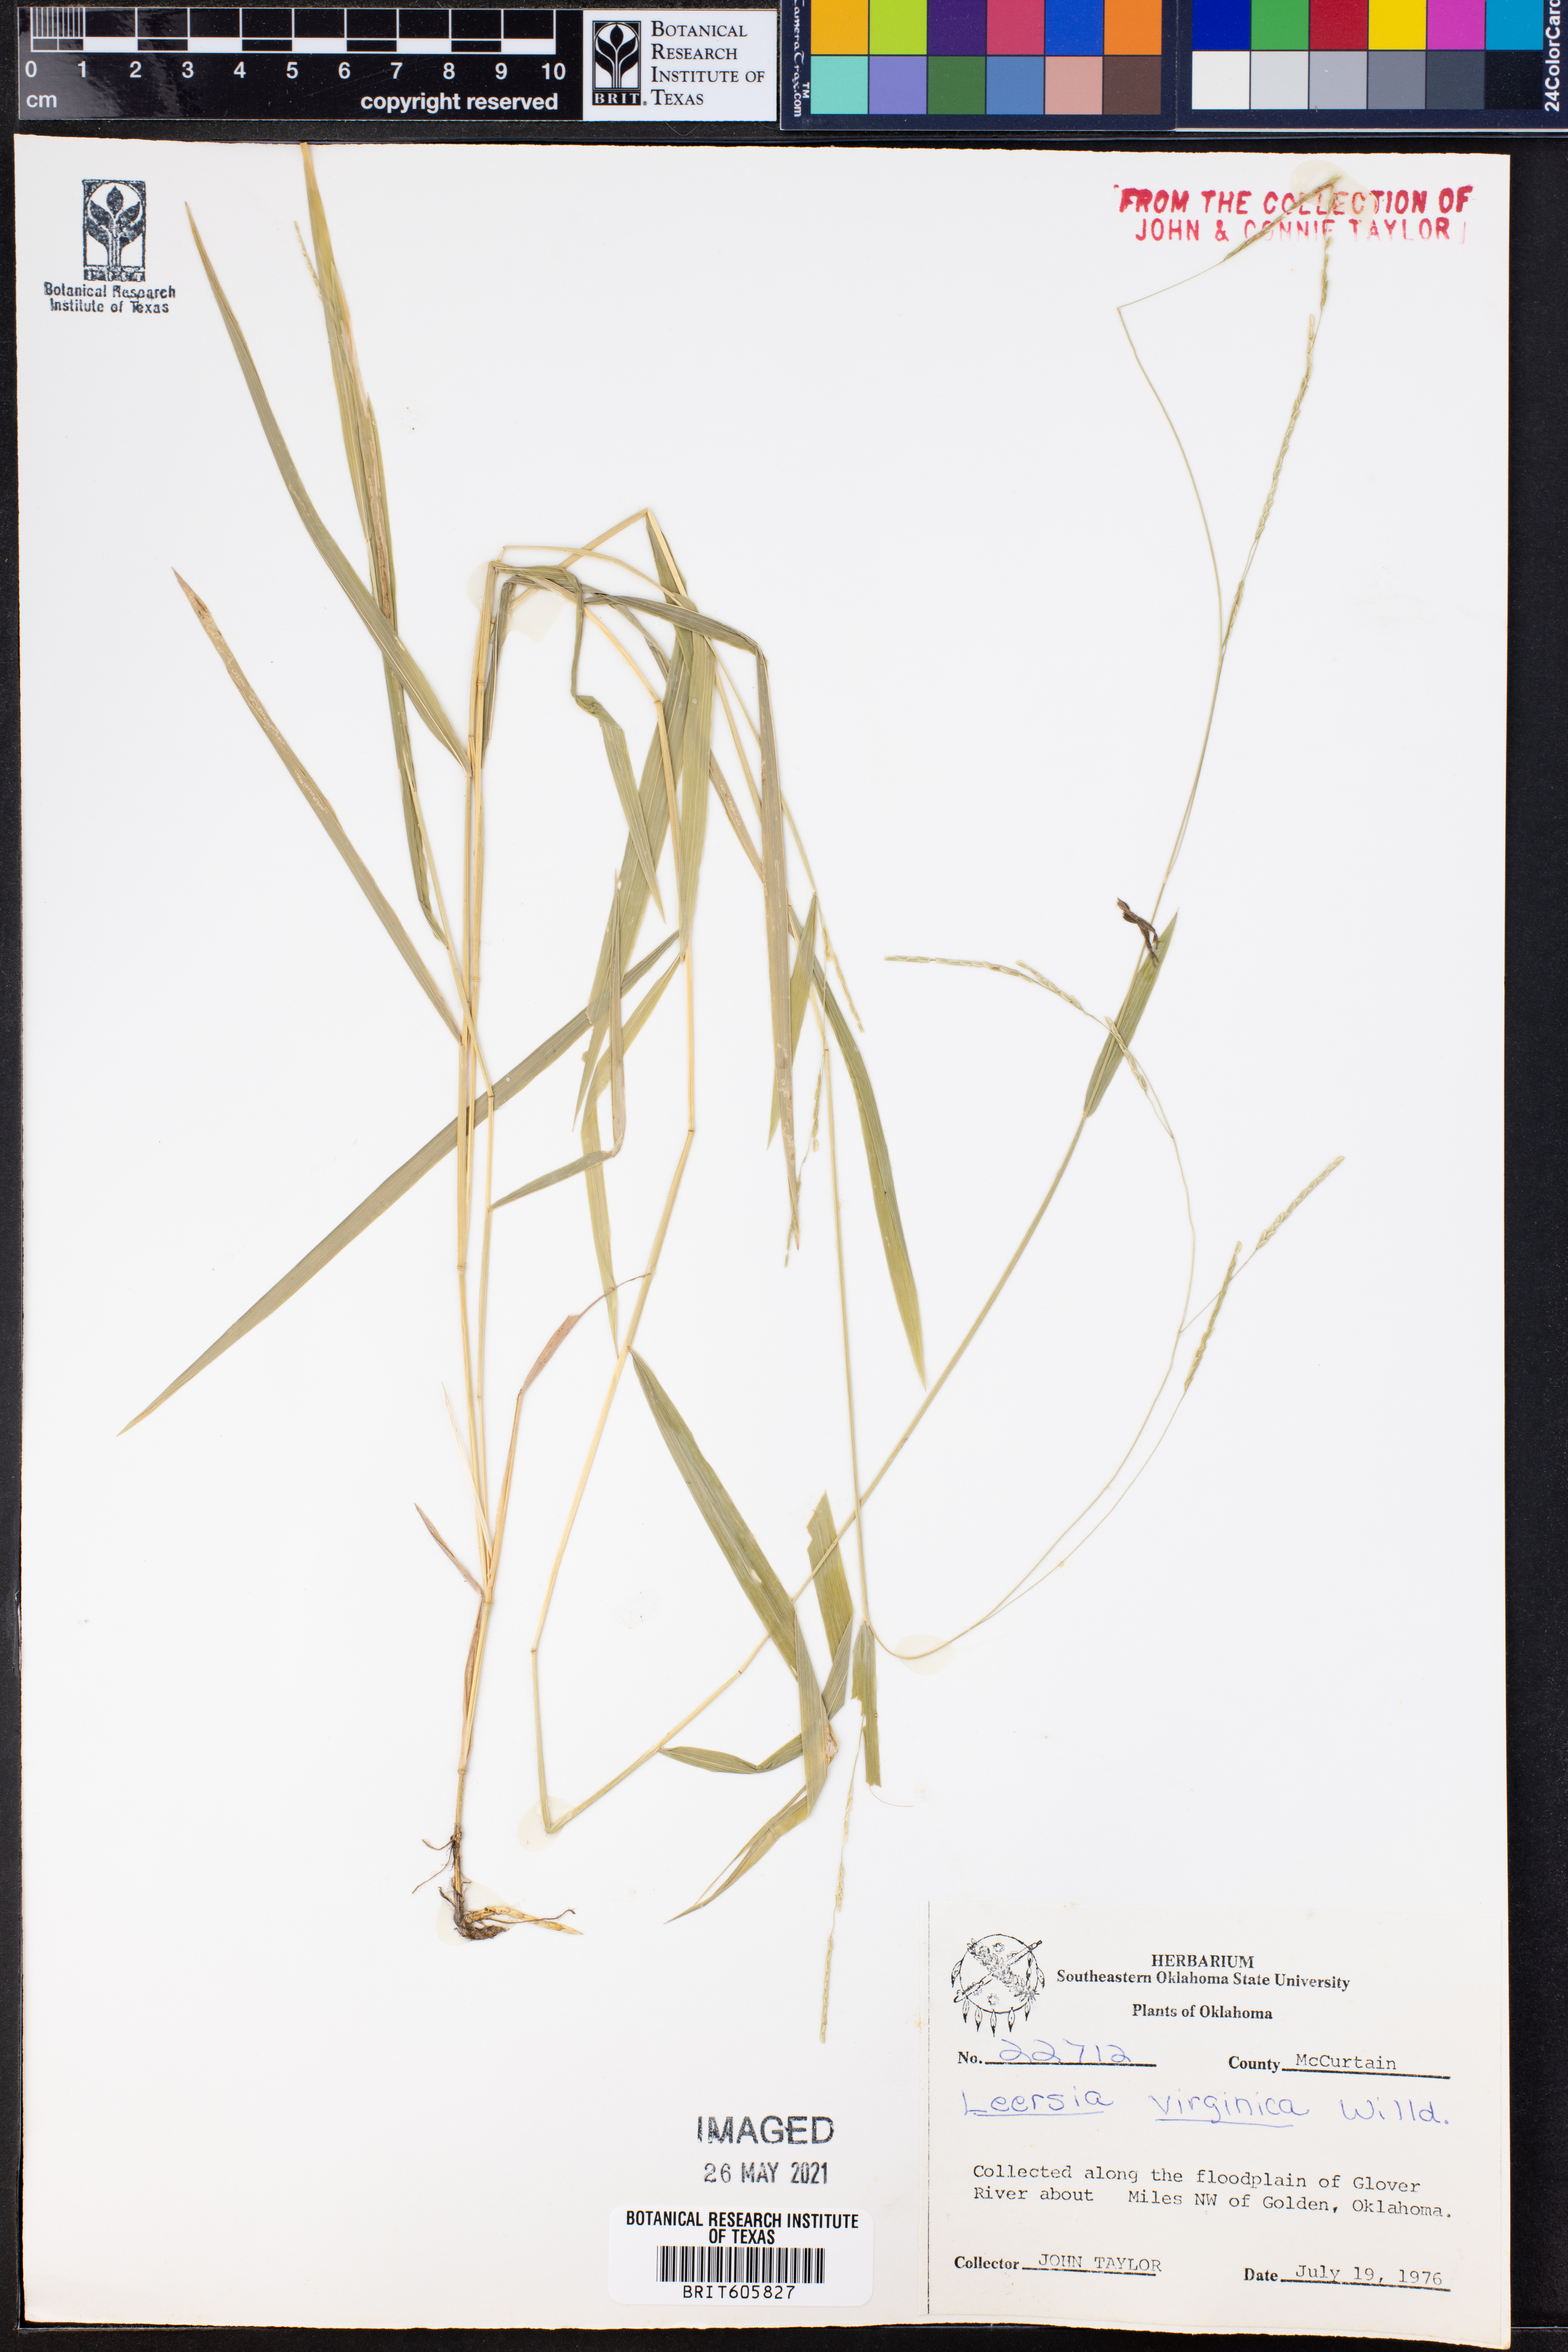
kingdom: Plantae
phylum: Tracheophyta
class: Liliopsida
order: Poales
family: Poaceae
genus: Leersia
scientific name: Leersia virginica
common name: White cutgrass
